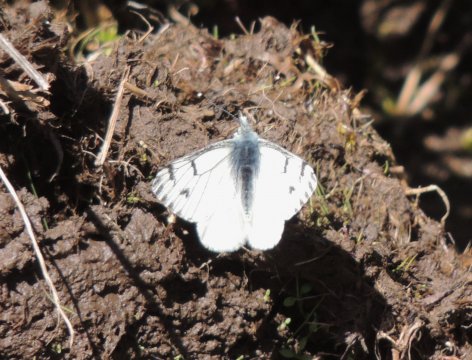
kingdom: Animalia
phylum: Arthropoda
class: Insecta
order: Lepidoptera
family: Pieridae
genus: Pontia
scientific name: Pontia sisymbrii
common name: Spring White
